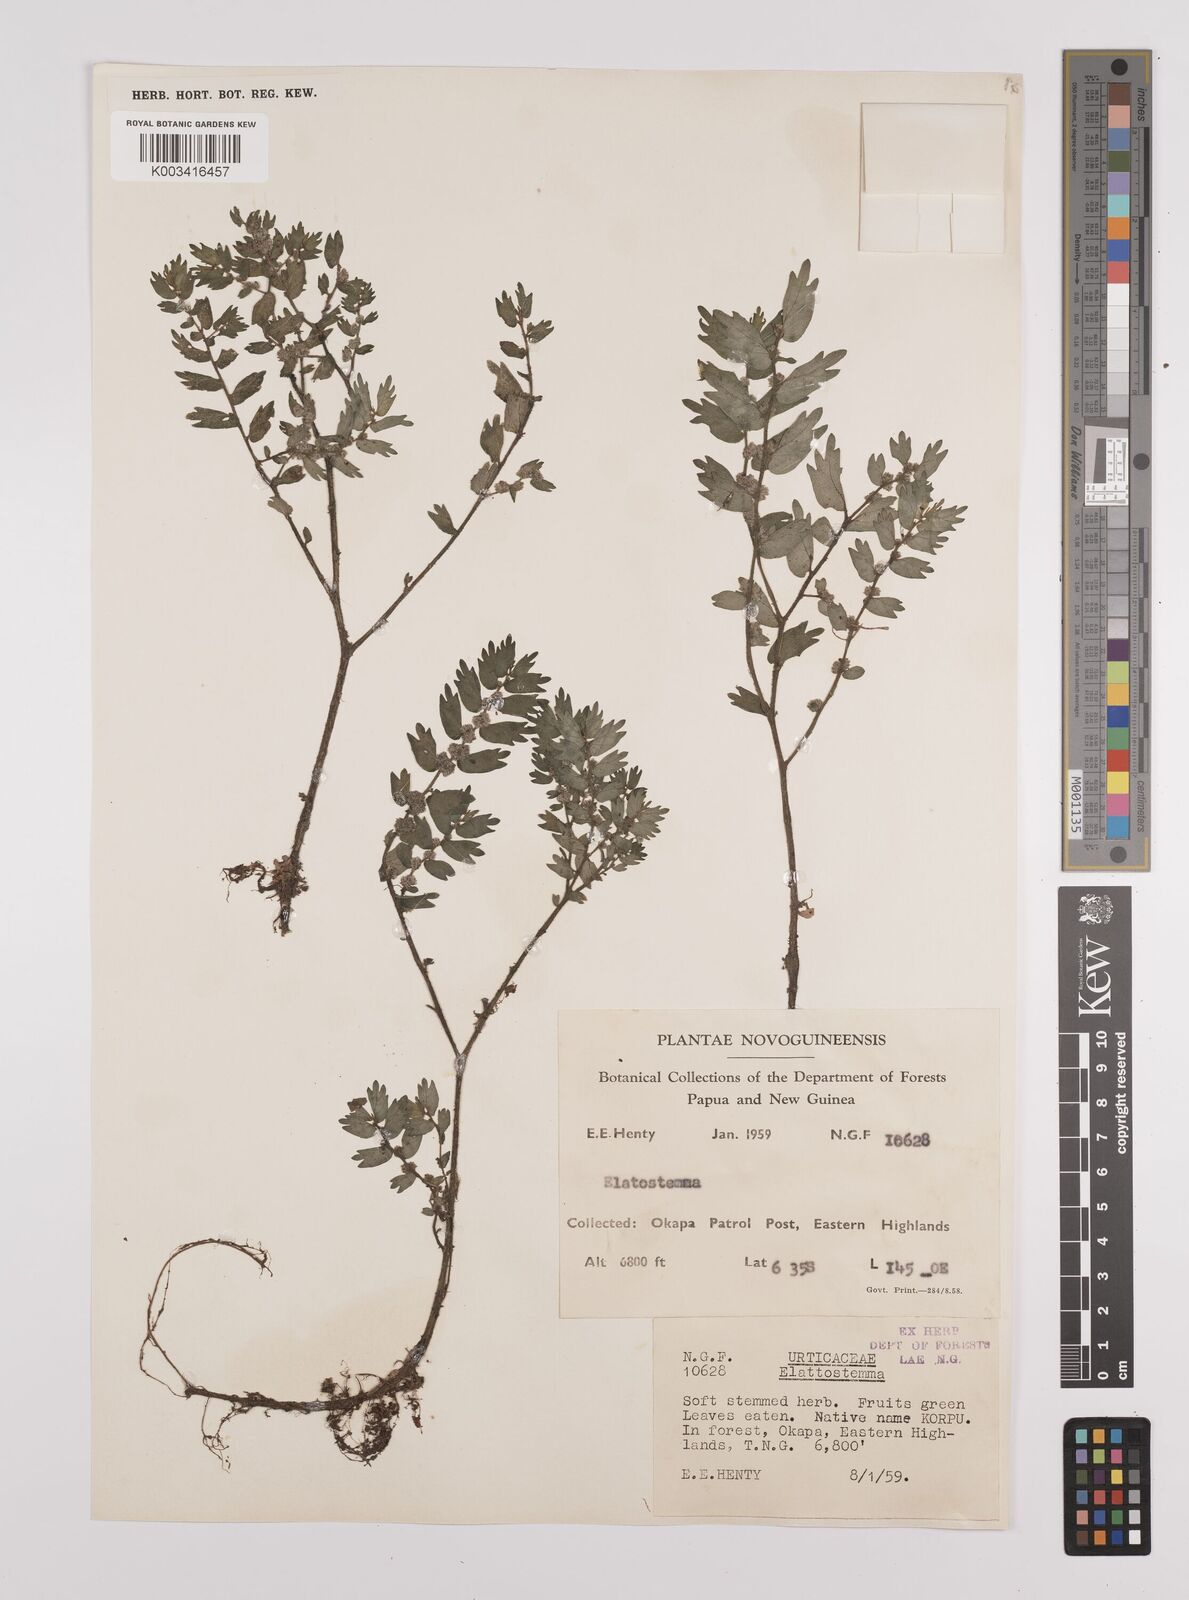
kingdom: Plantae
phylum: Tracheophyta
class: Magnoliopsida
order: Rosales
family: Urticaceae
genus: Elatostema
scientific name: Elatostema
